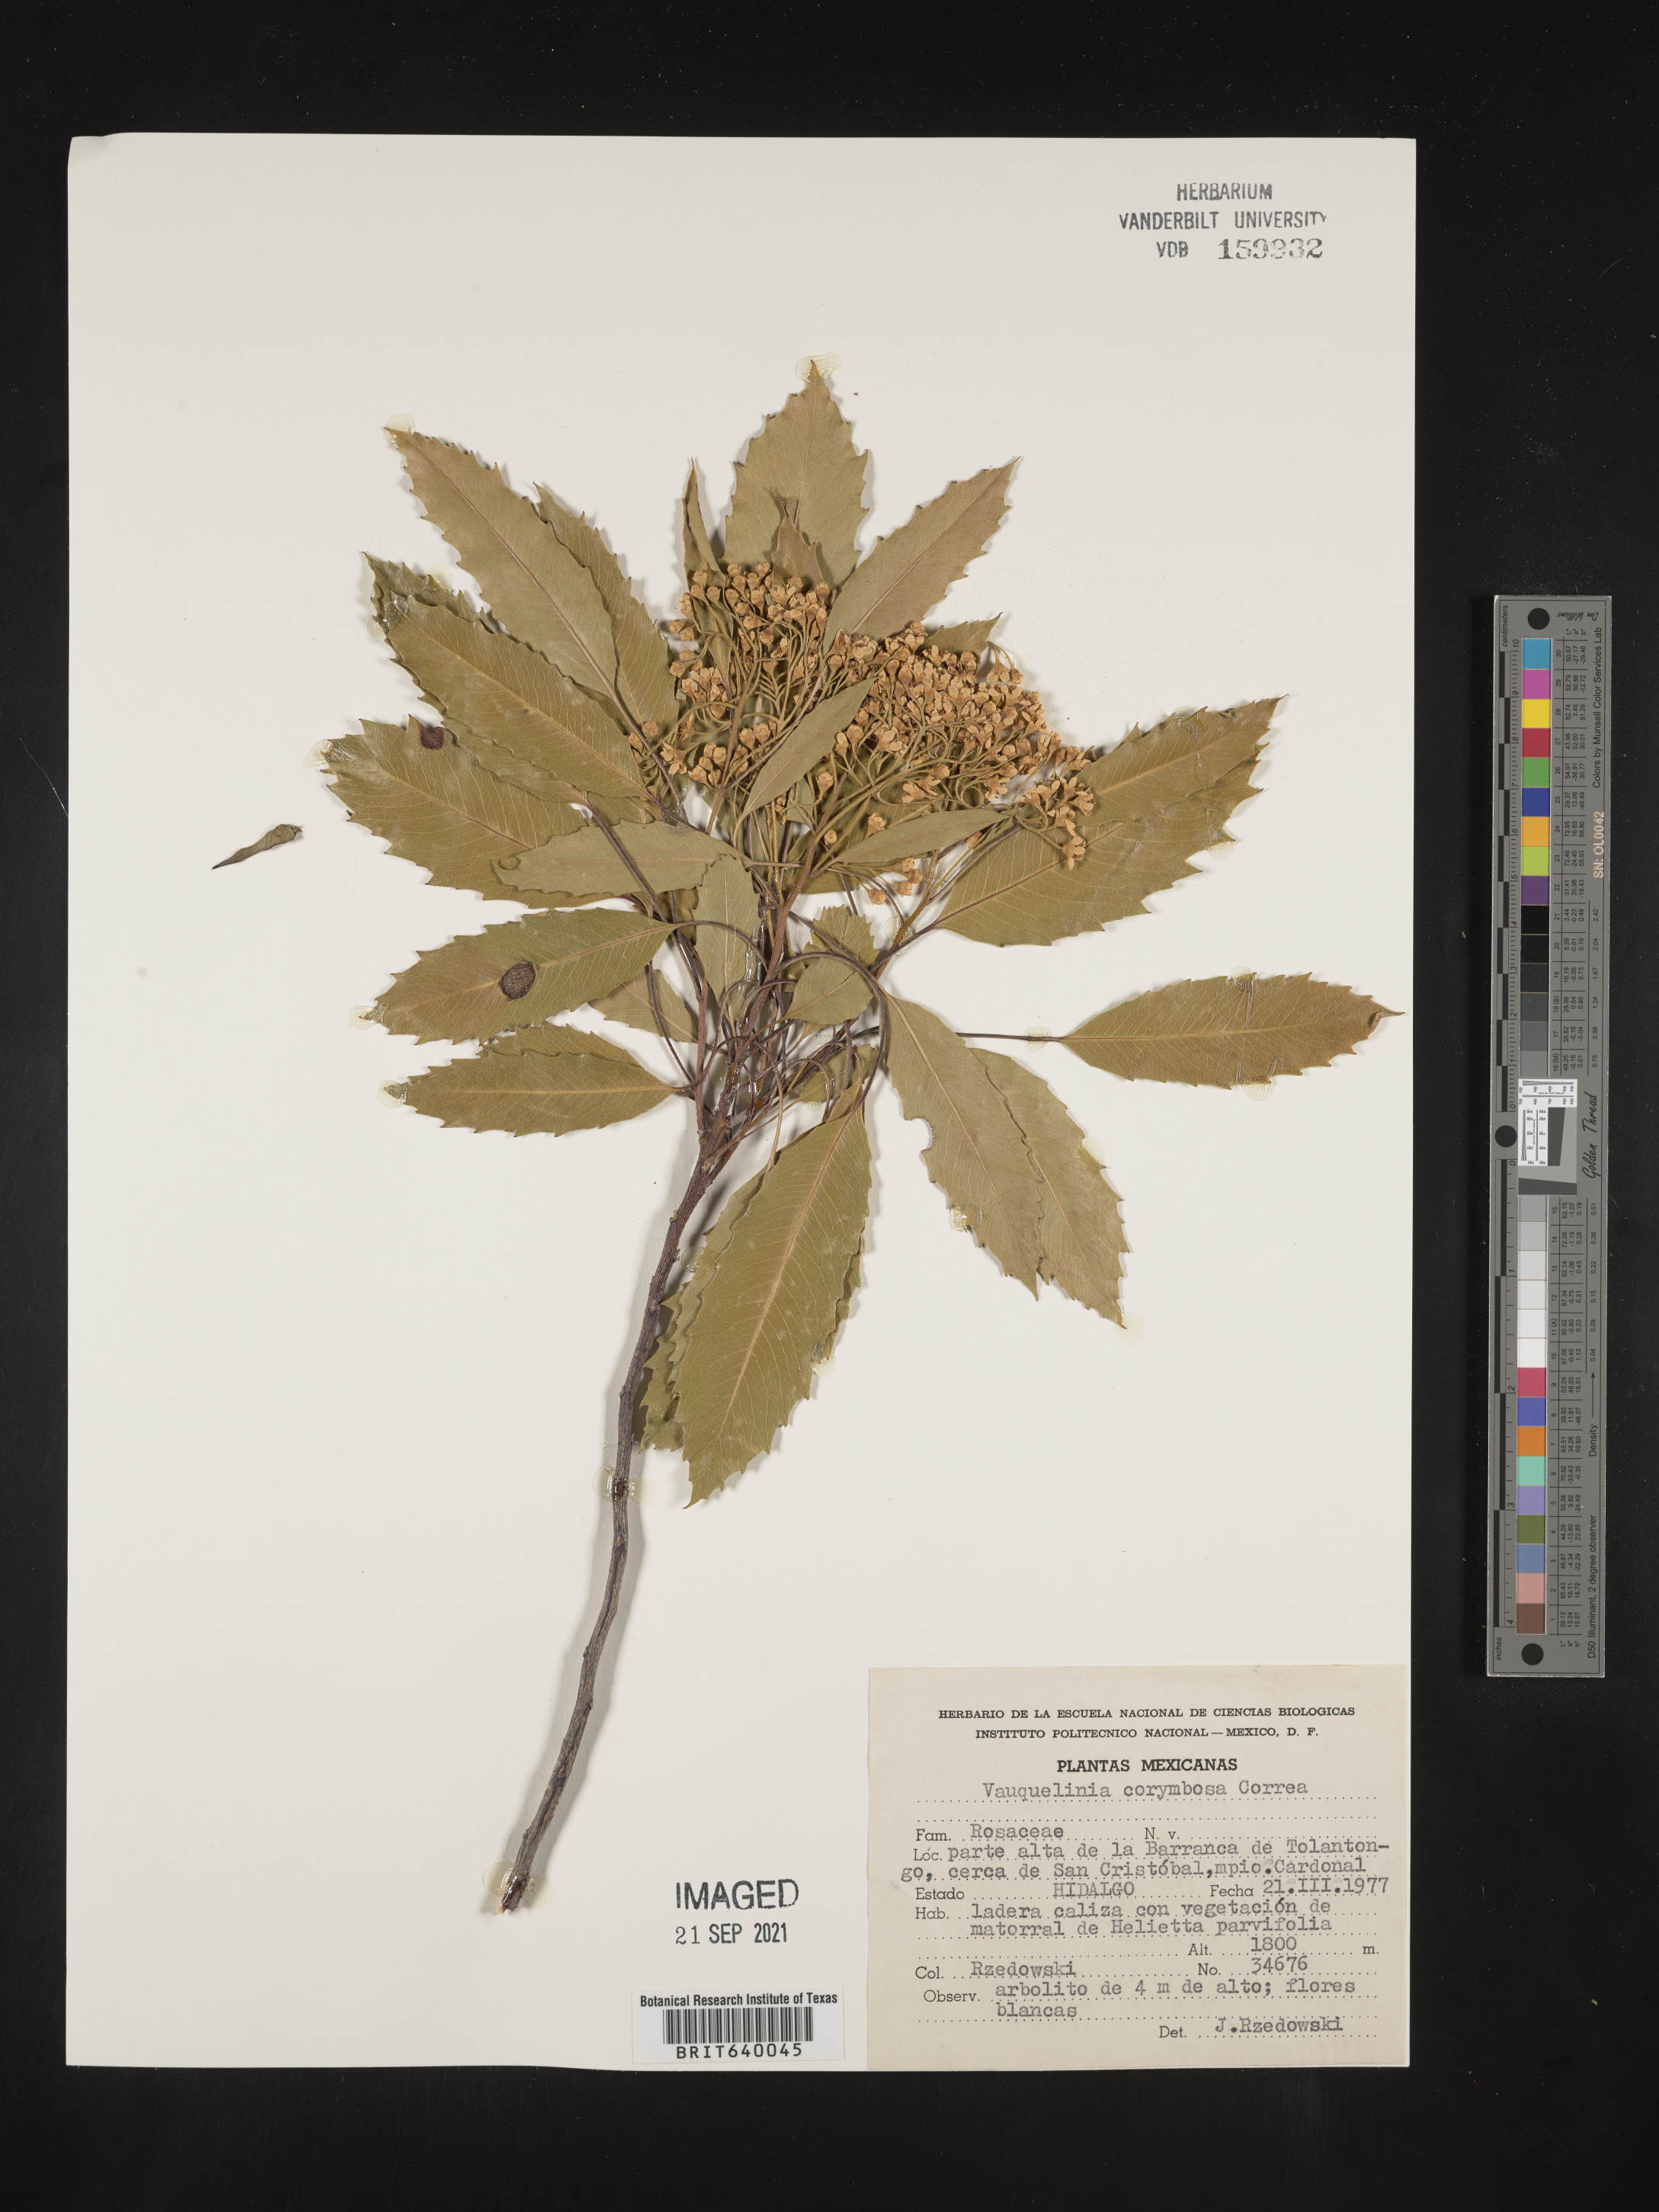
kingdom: Plantae
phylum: Tracheophyta
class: Magnoliopsida
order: Rosales
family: Rosaceae
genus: Vauquelinia
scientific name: Vauquelinia
